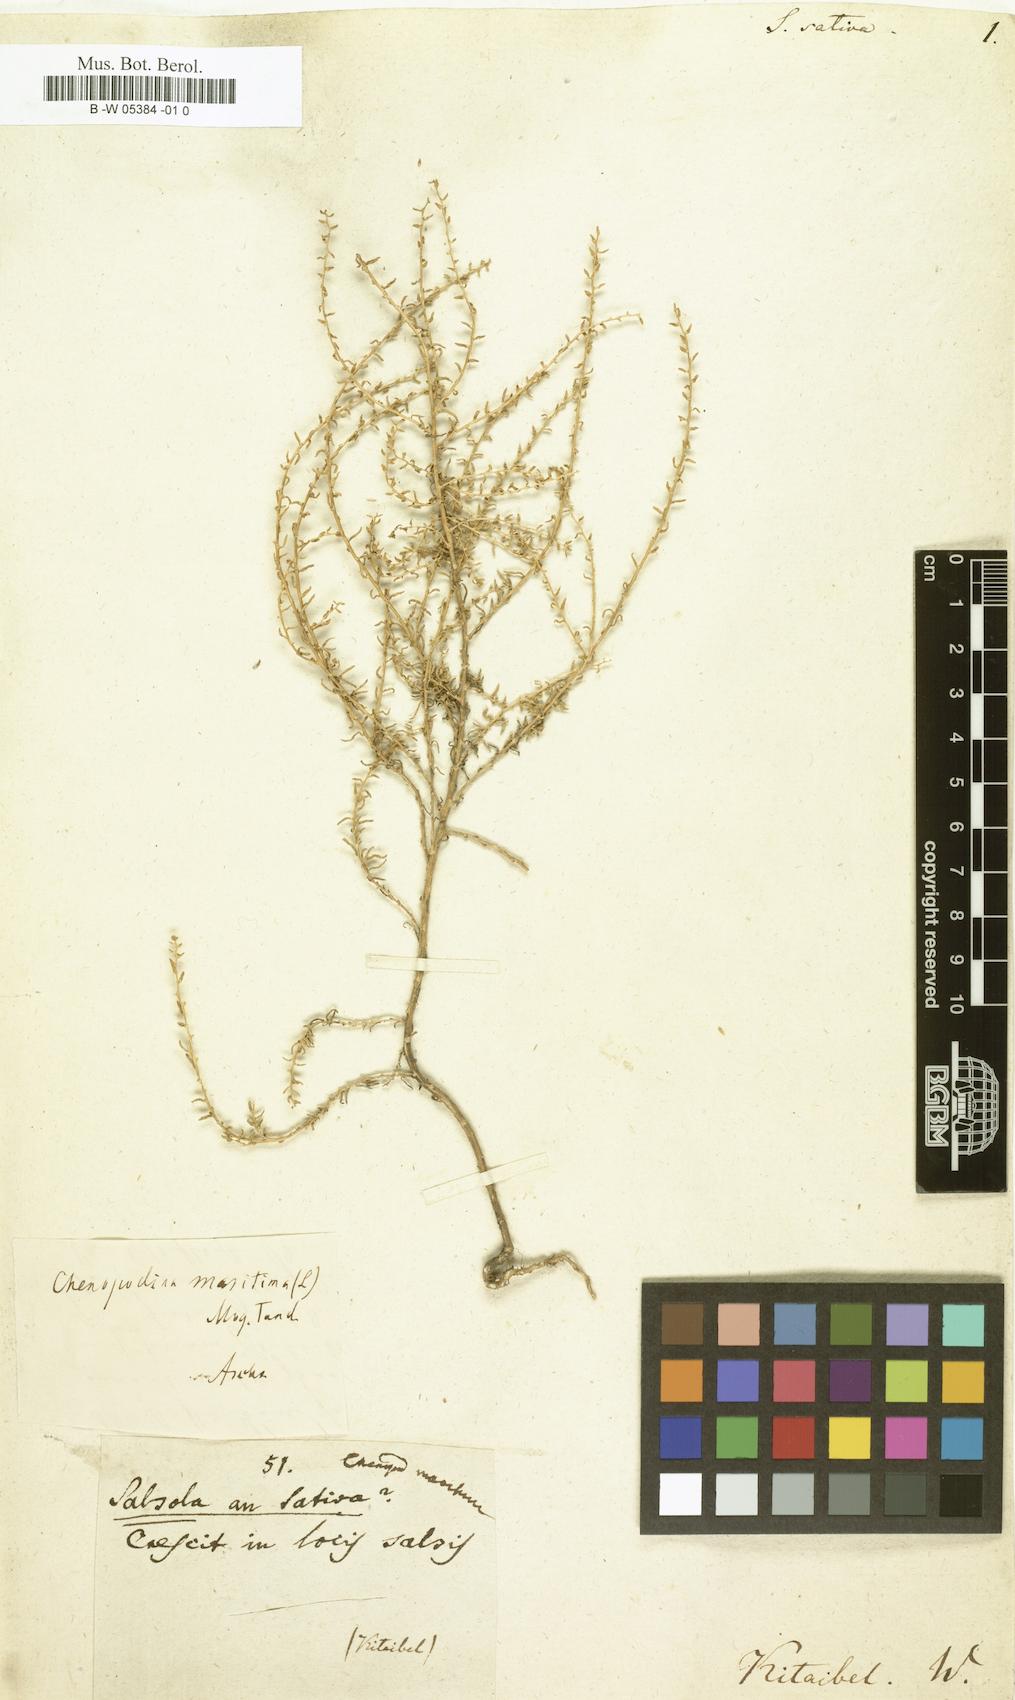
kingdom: Plantae
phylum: Tracheophyta
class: Magnoliopsida
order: Caryophyllales
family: Amaranthaceae
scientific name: Amaranthaceae
